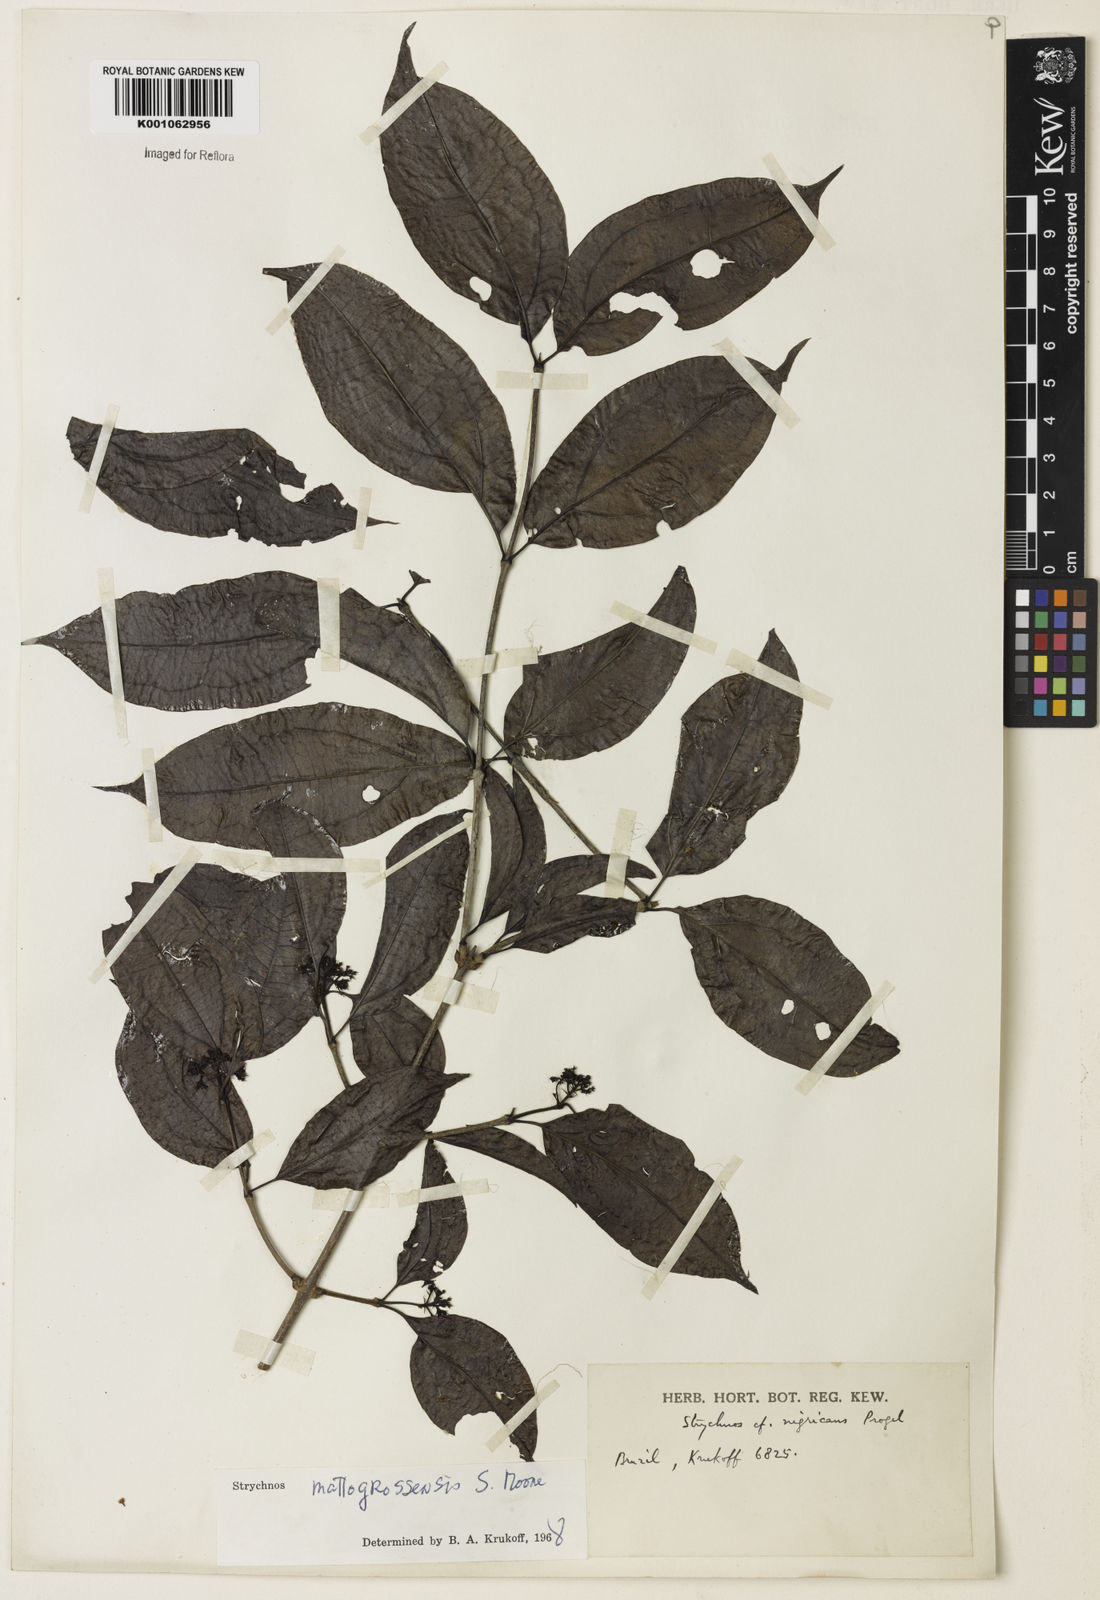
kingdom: Plantae
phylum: Tracheophyta
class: Magnoliopsida
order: Gentianales
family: Loganiaceae
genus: Strychnos
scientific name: Strychnos mattogrossensis
